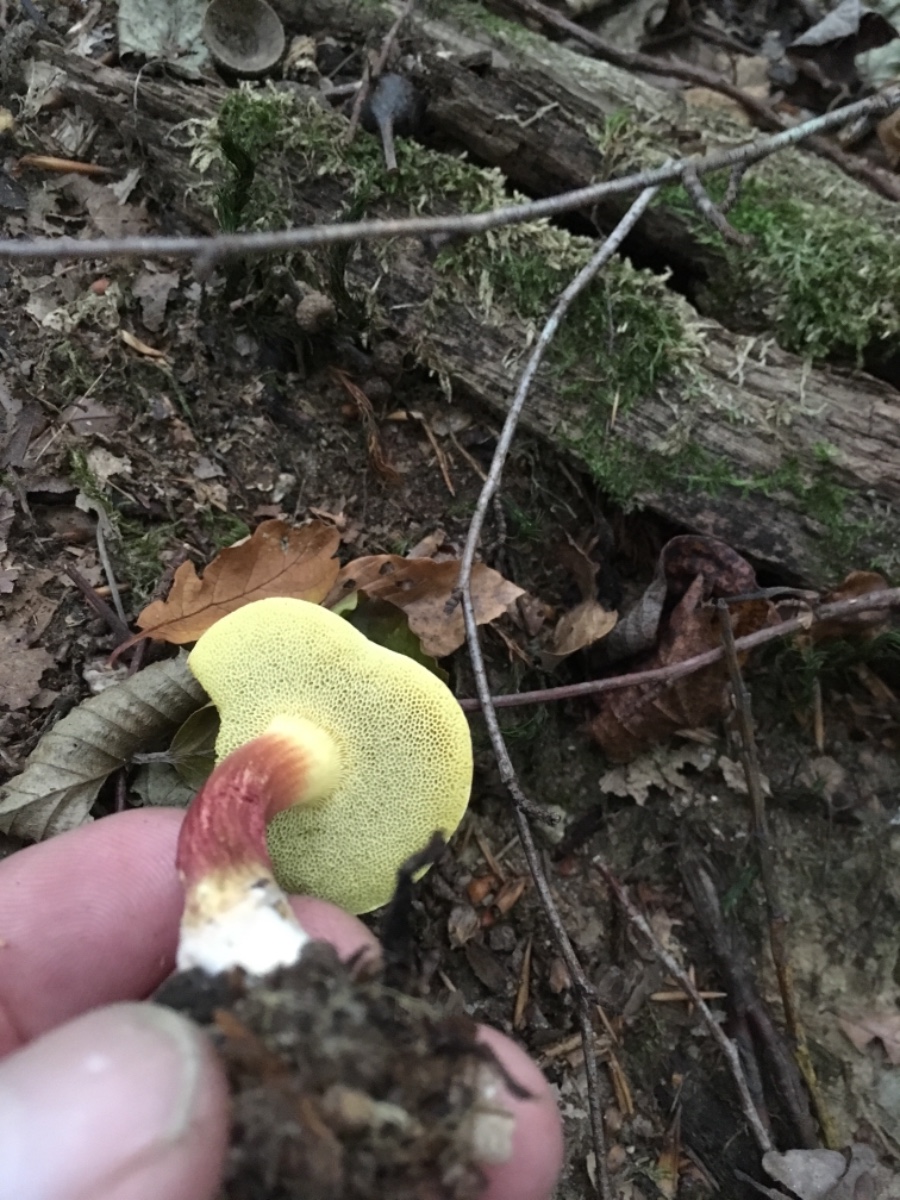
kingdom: Fungi
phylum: Basidiomycota
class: Agaricomycetes
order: Boletales
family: Boletaceae
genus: Xerocomellus
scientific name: Xerocomellus chrysenteron
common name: rødsprukken rørhat
